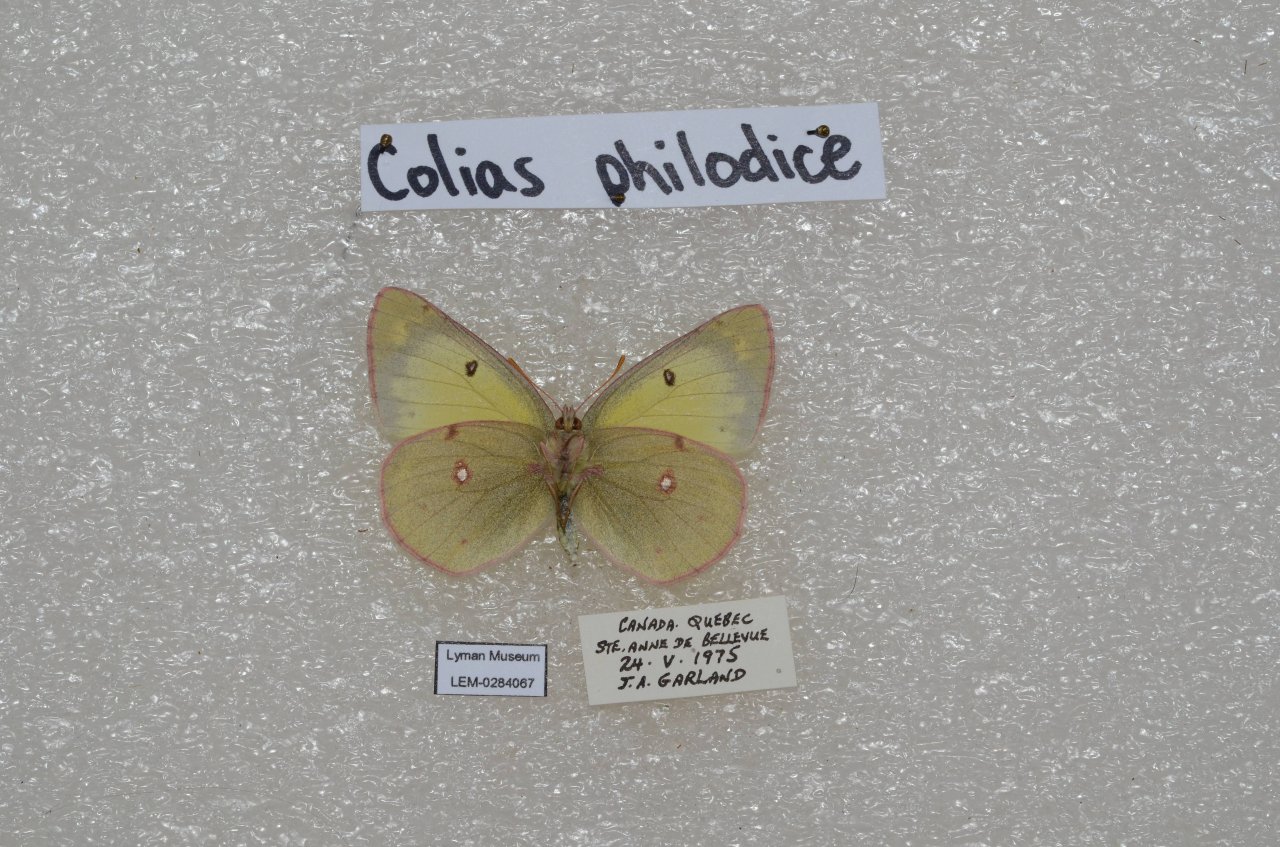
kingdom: Animalia
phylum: Arthropoda
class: Insecta
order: Lepidoptera
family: Pieridae
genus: Colias
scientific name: Colias philodice
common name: Clouded Sulphur
